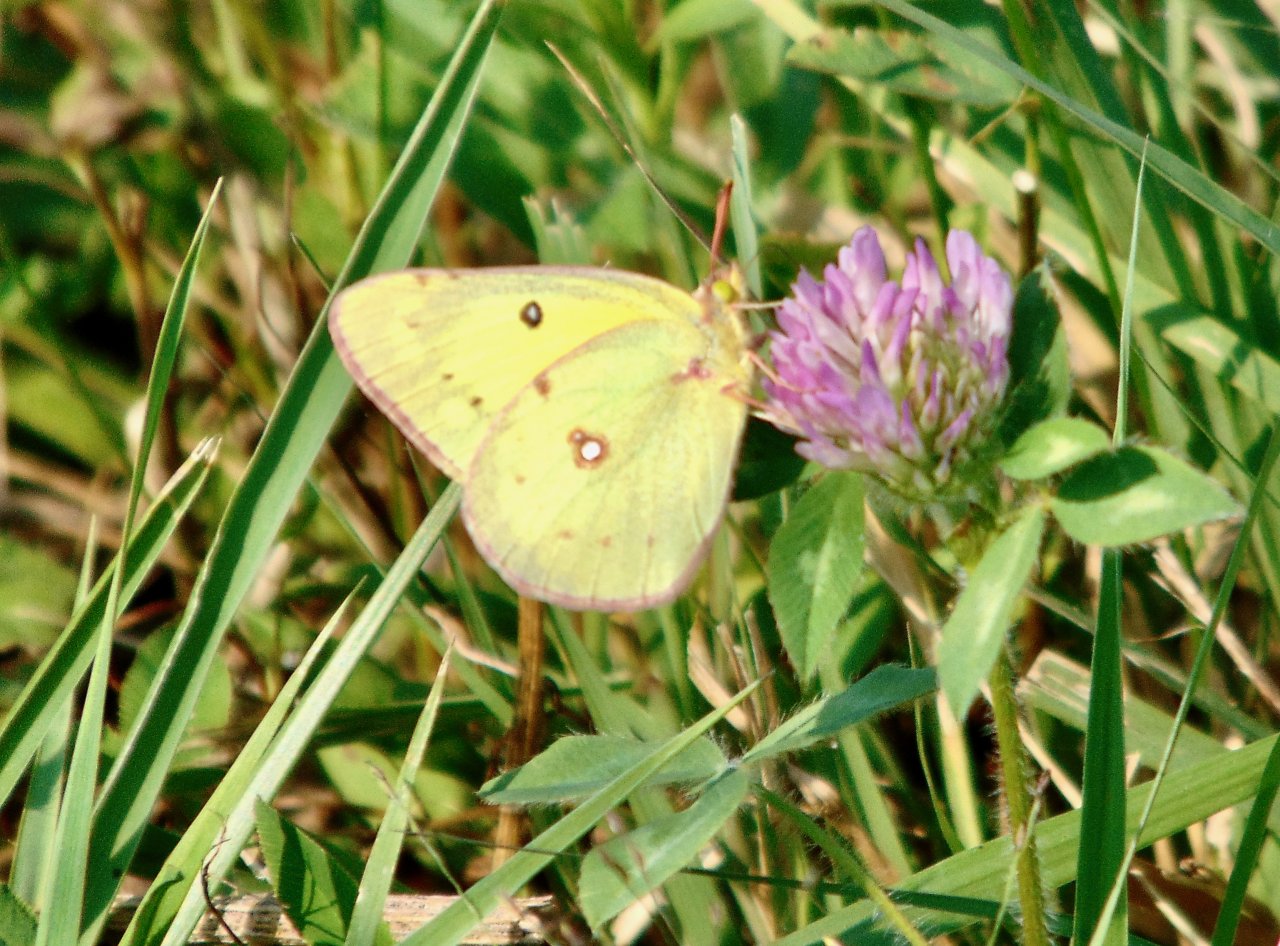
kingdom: Animalia
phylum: Arthropoda
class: Insecta
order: Lepidoptera
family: Pieridae
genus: Colias
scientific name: Colias philodice
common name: Clouded Sulphur
